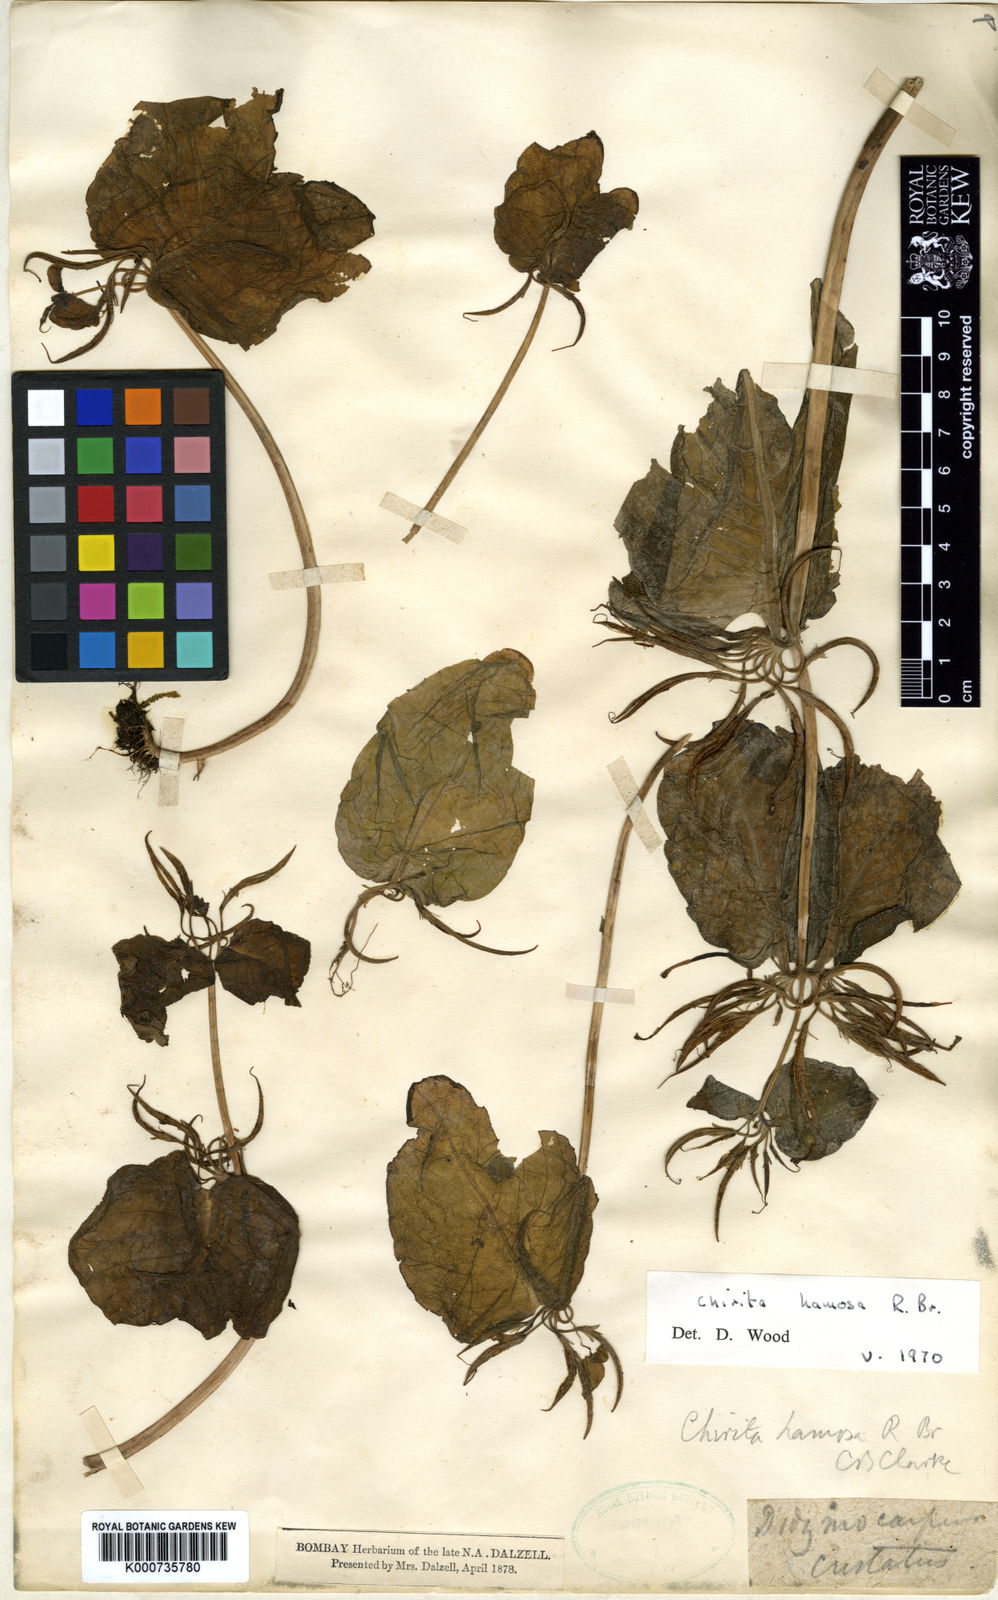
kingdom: Plantae
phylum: Tracheophyta
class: Magnoliopsida
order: Lamiales
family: Gesneriaceae
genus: Microchirita
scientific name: Microchirita hamosa
